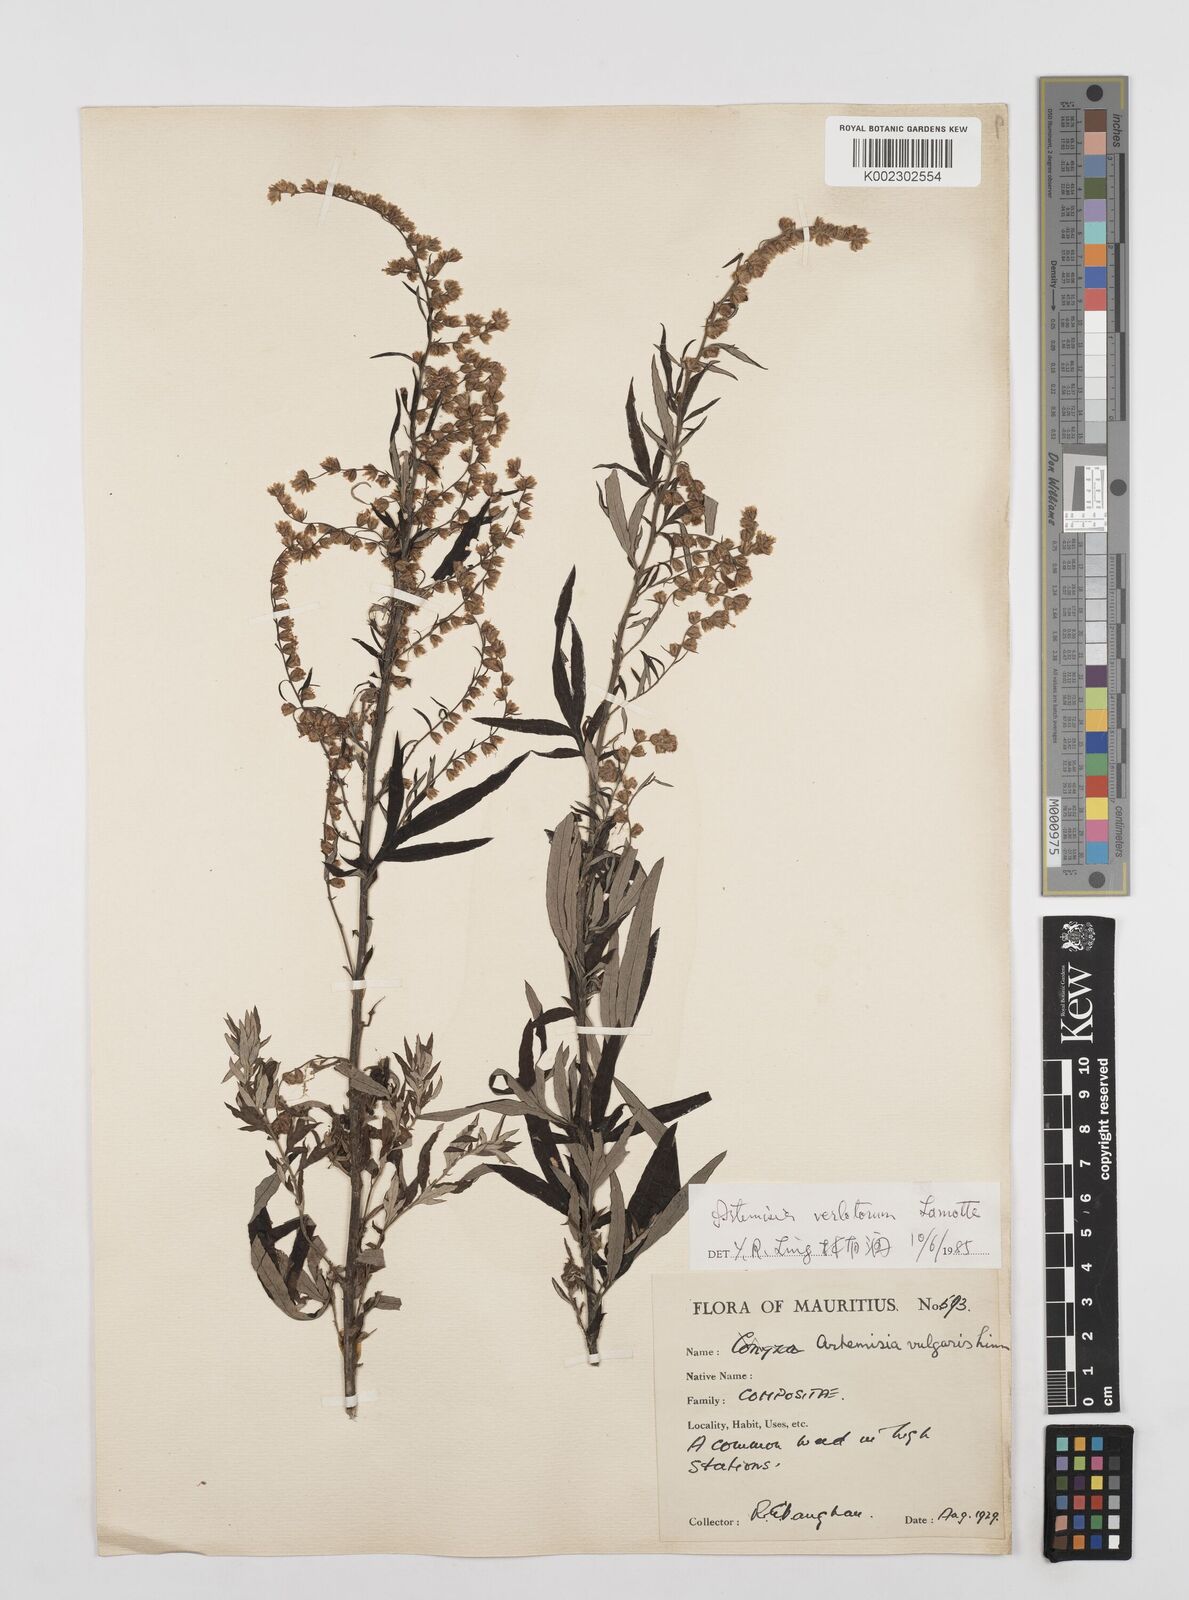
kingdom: Plantae
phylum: Tracheophyta
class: Magnoliopsida
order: Asterales
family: Asteraceae
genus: Artemisia
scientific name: Artemisia vulgaris
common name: Mugwort
